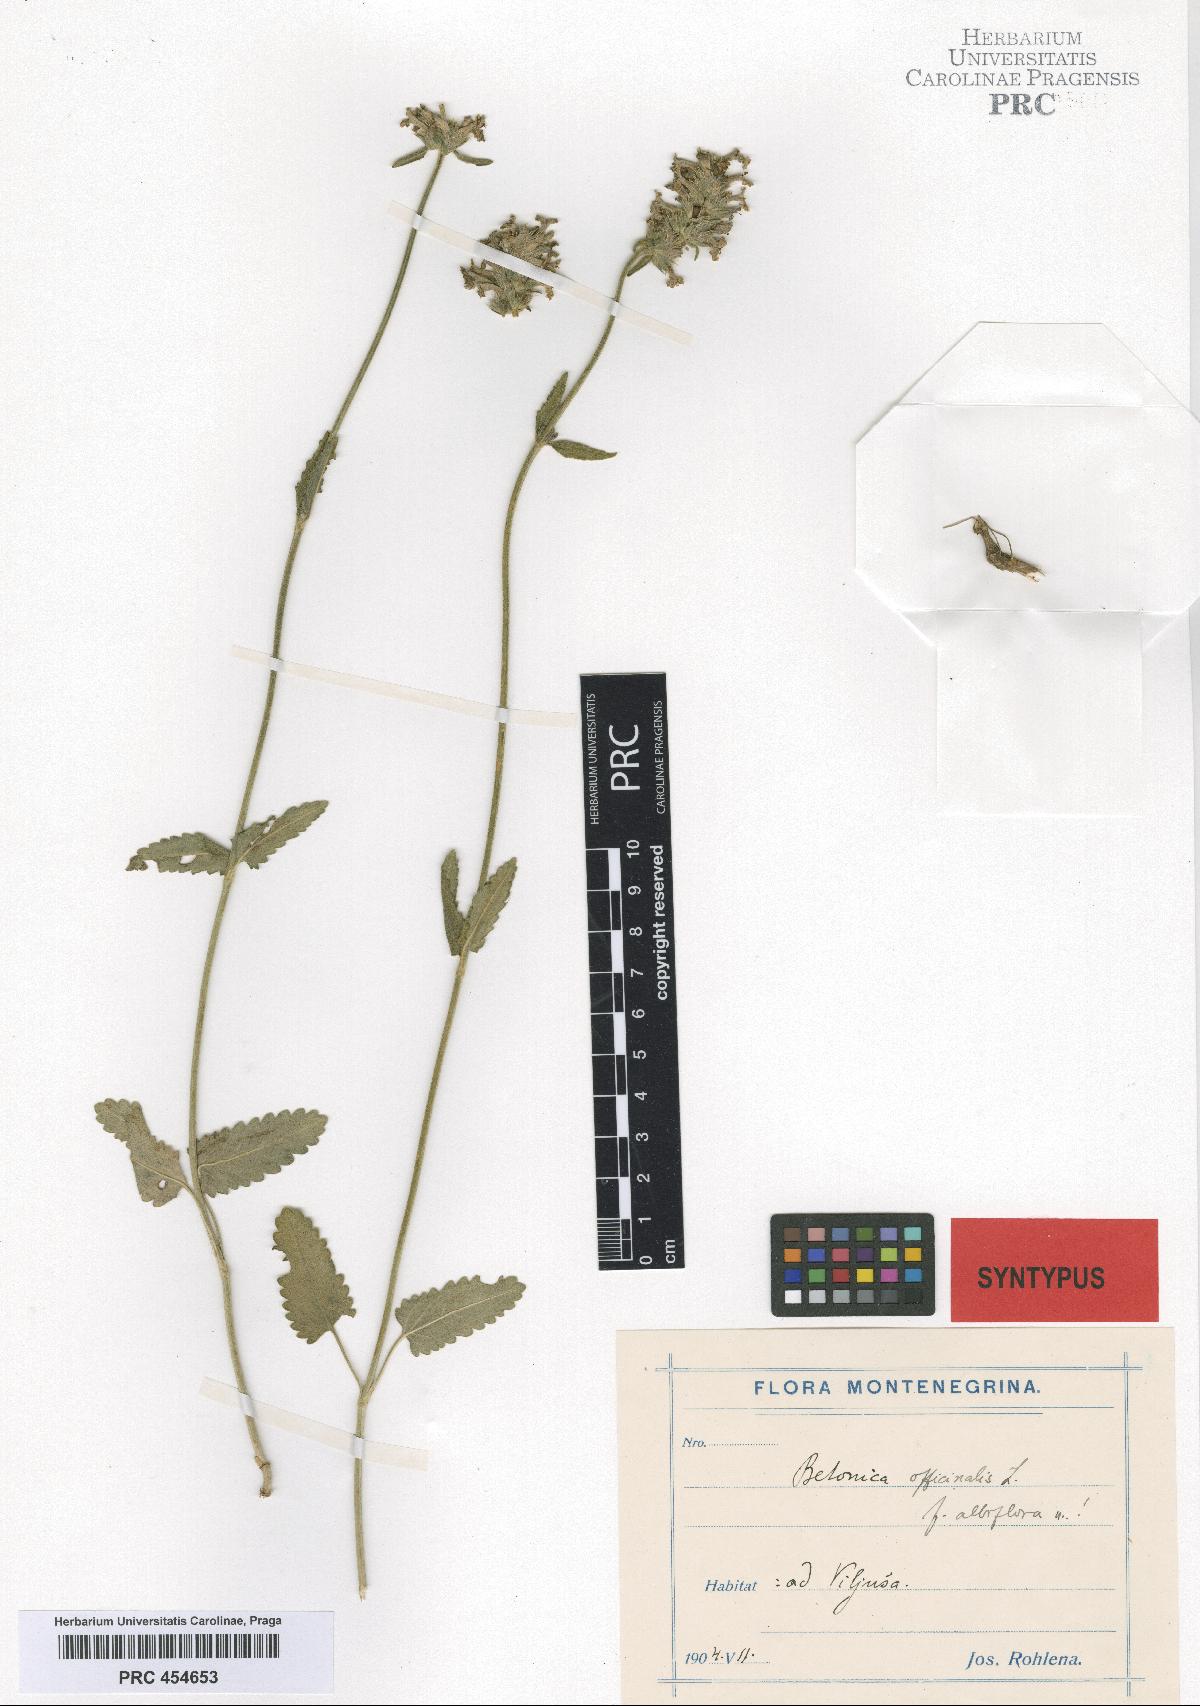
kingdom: Plantae
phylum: Tracheophyta
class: Magnoliopsida
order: Lamiales
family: Lamiaceae
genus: Betonica
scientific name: Betonica officinalis
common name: Bishop's-wort
